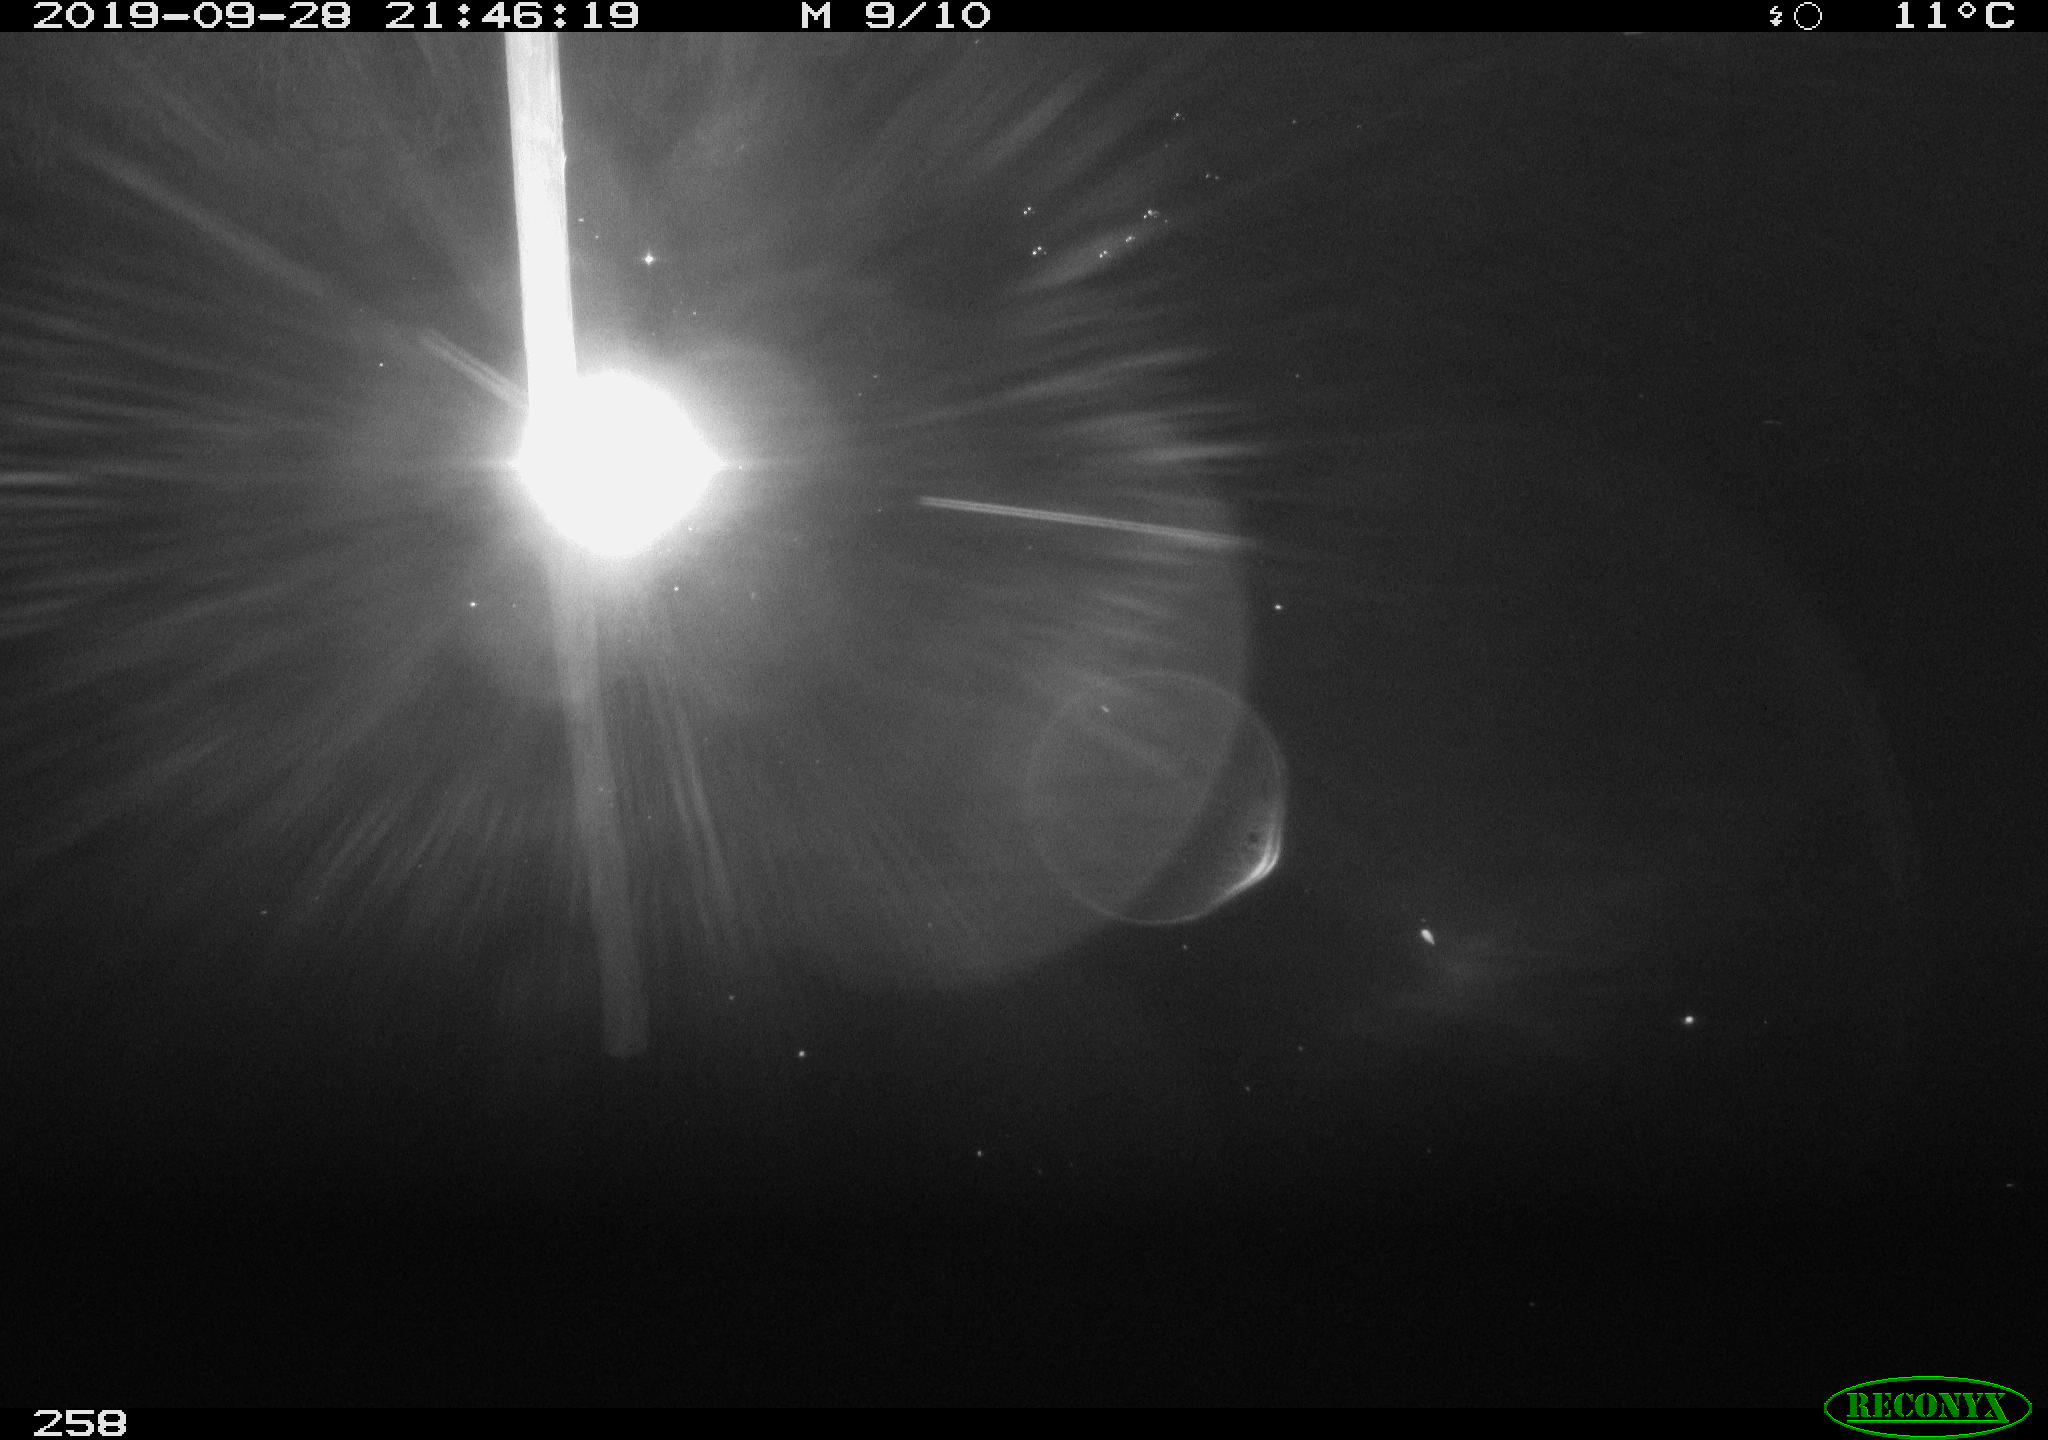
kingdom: Animalia
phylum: Chordata
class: Aves
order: Anseriformes
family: Anatidae
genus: Anas
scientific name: Anas platyrhynchos
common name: Mallard
